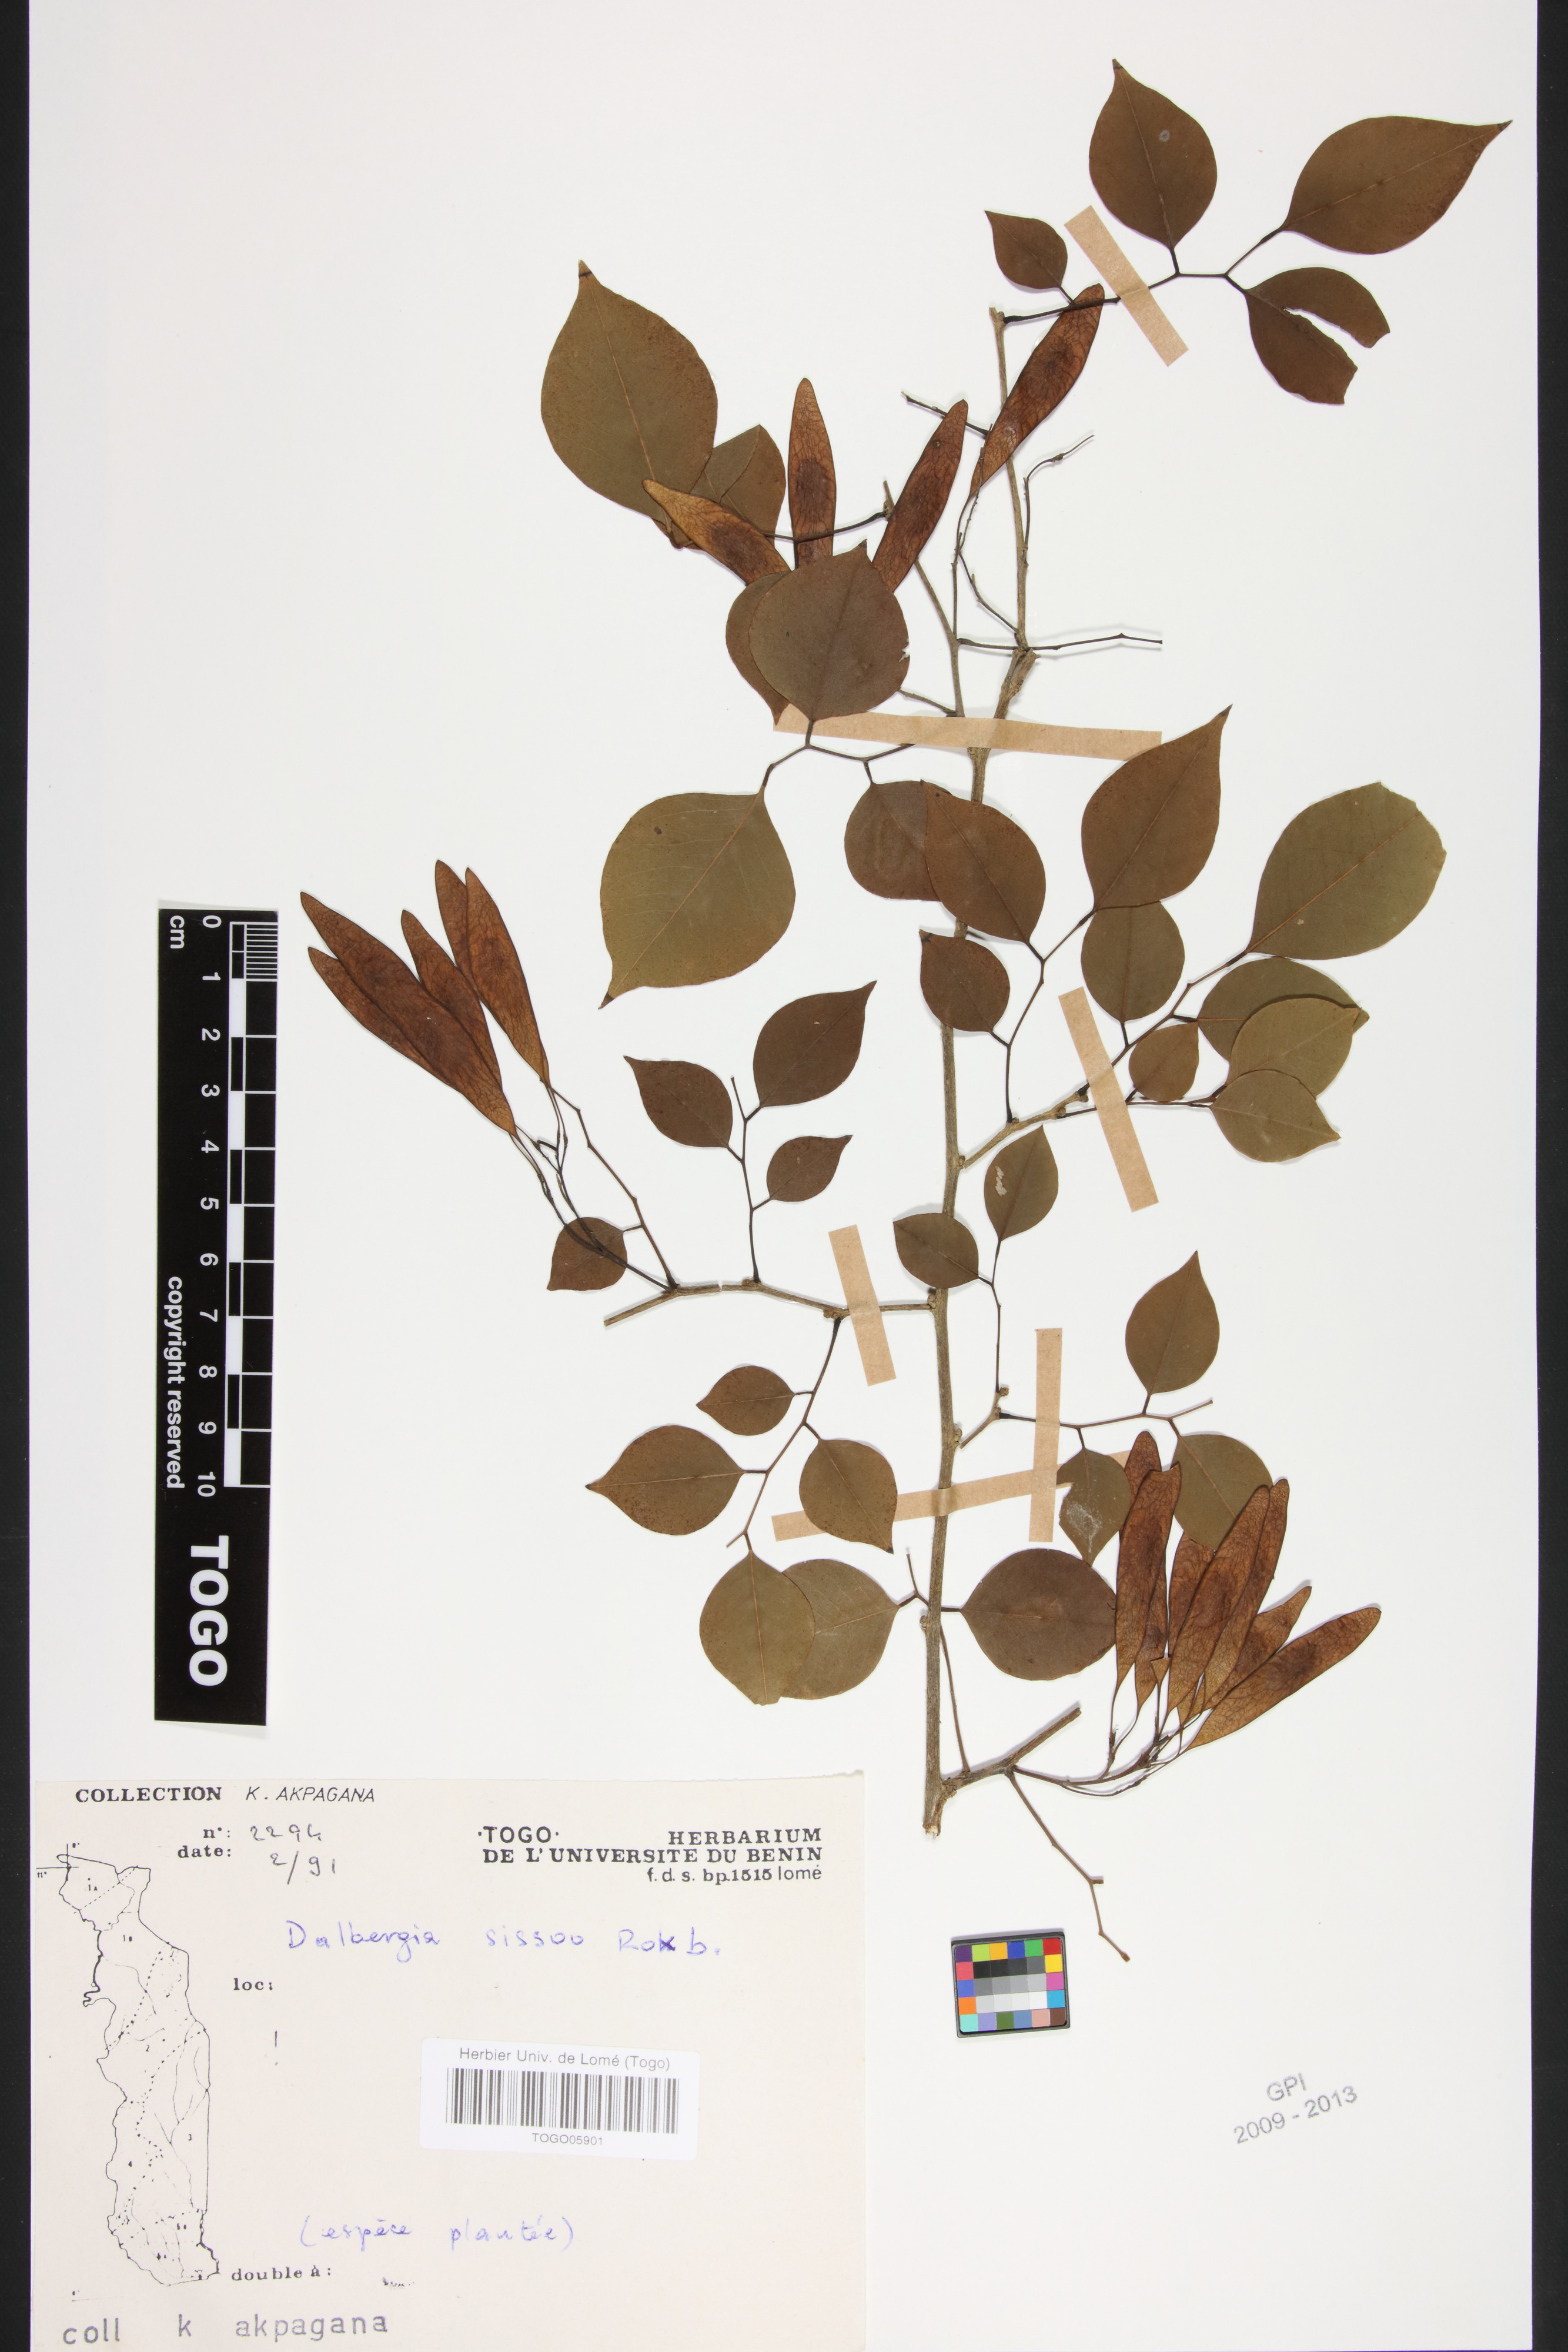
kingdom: Plantae
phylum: Tracheophyta
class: Magnoliopsida
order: Fabales
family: Fabaceae
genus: Dalbergia
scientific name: Dalbergia sissoo
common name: Indian rosewood
